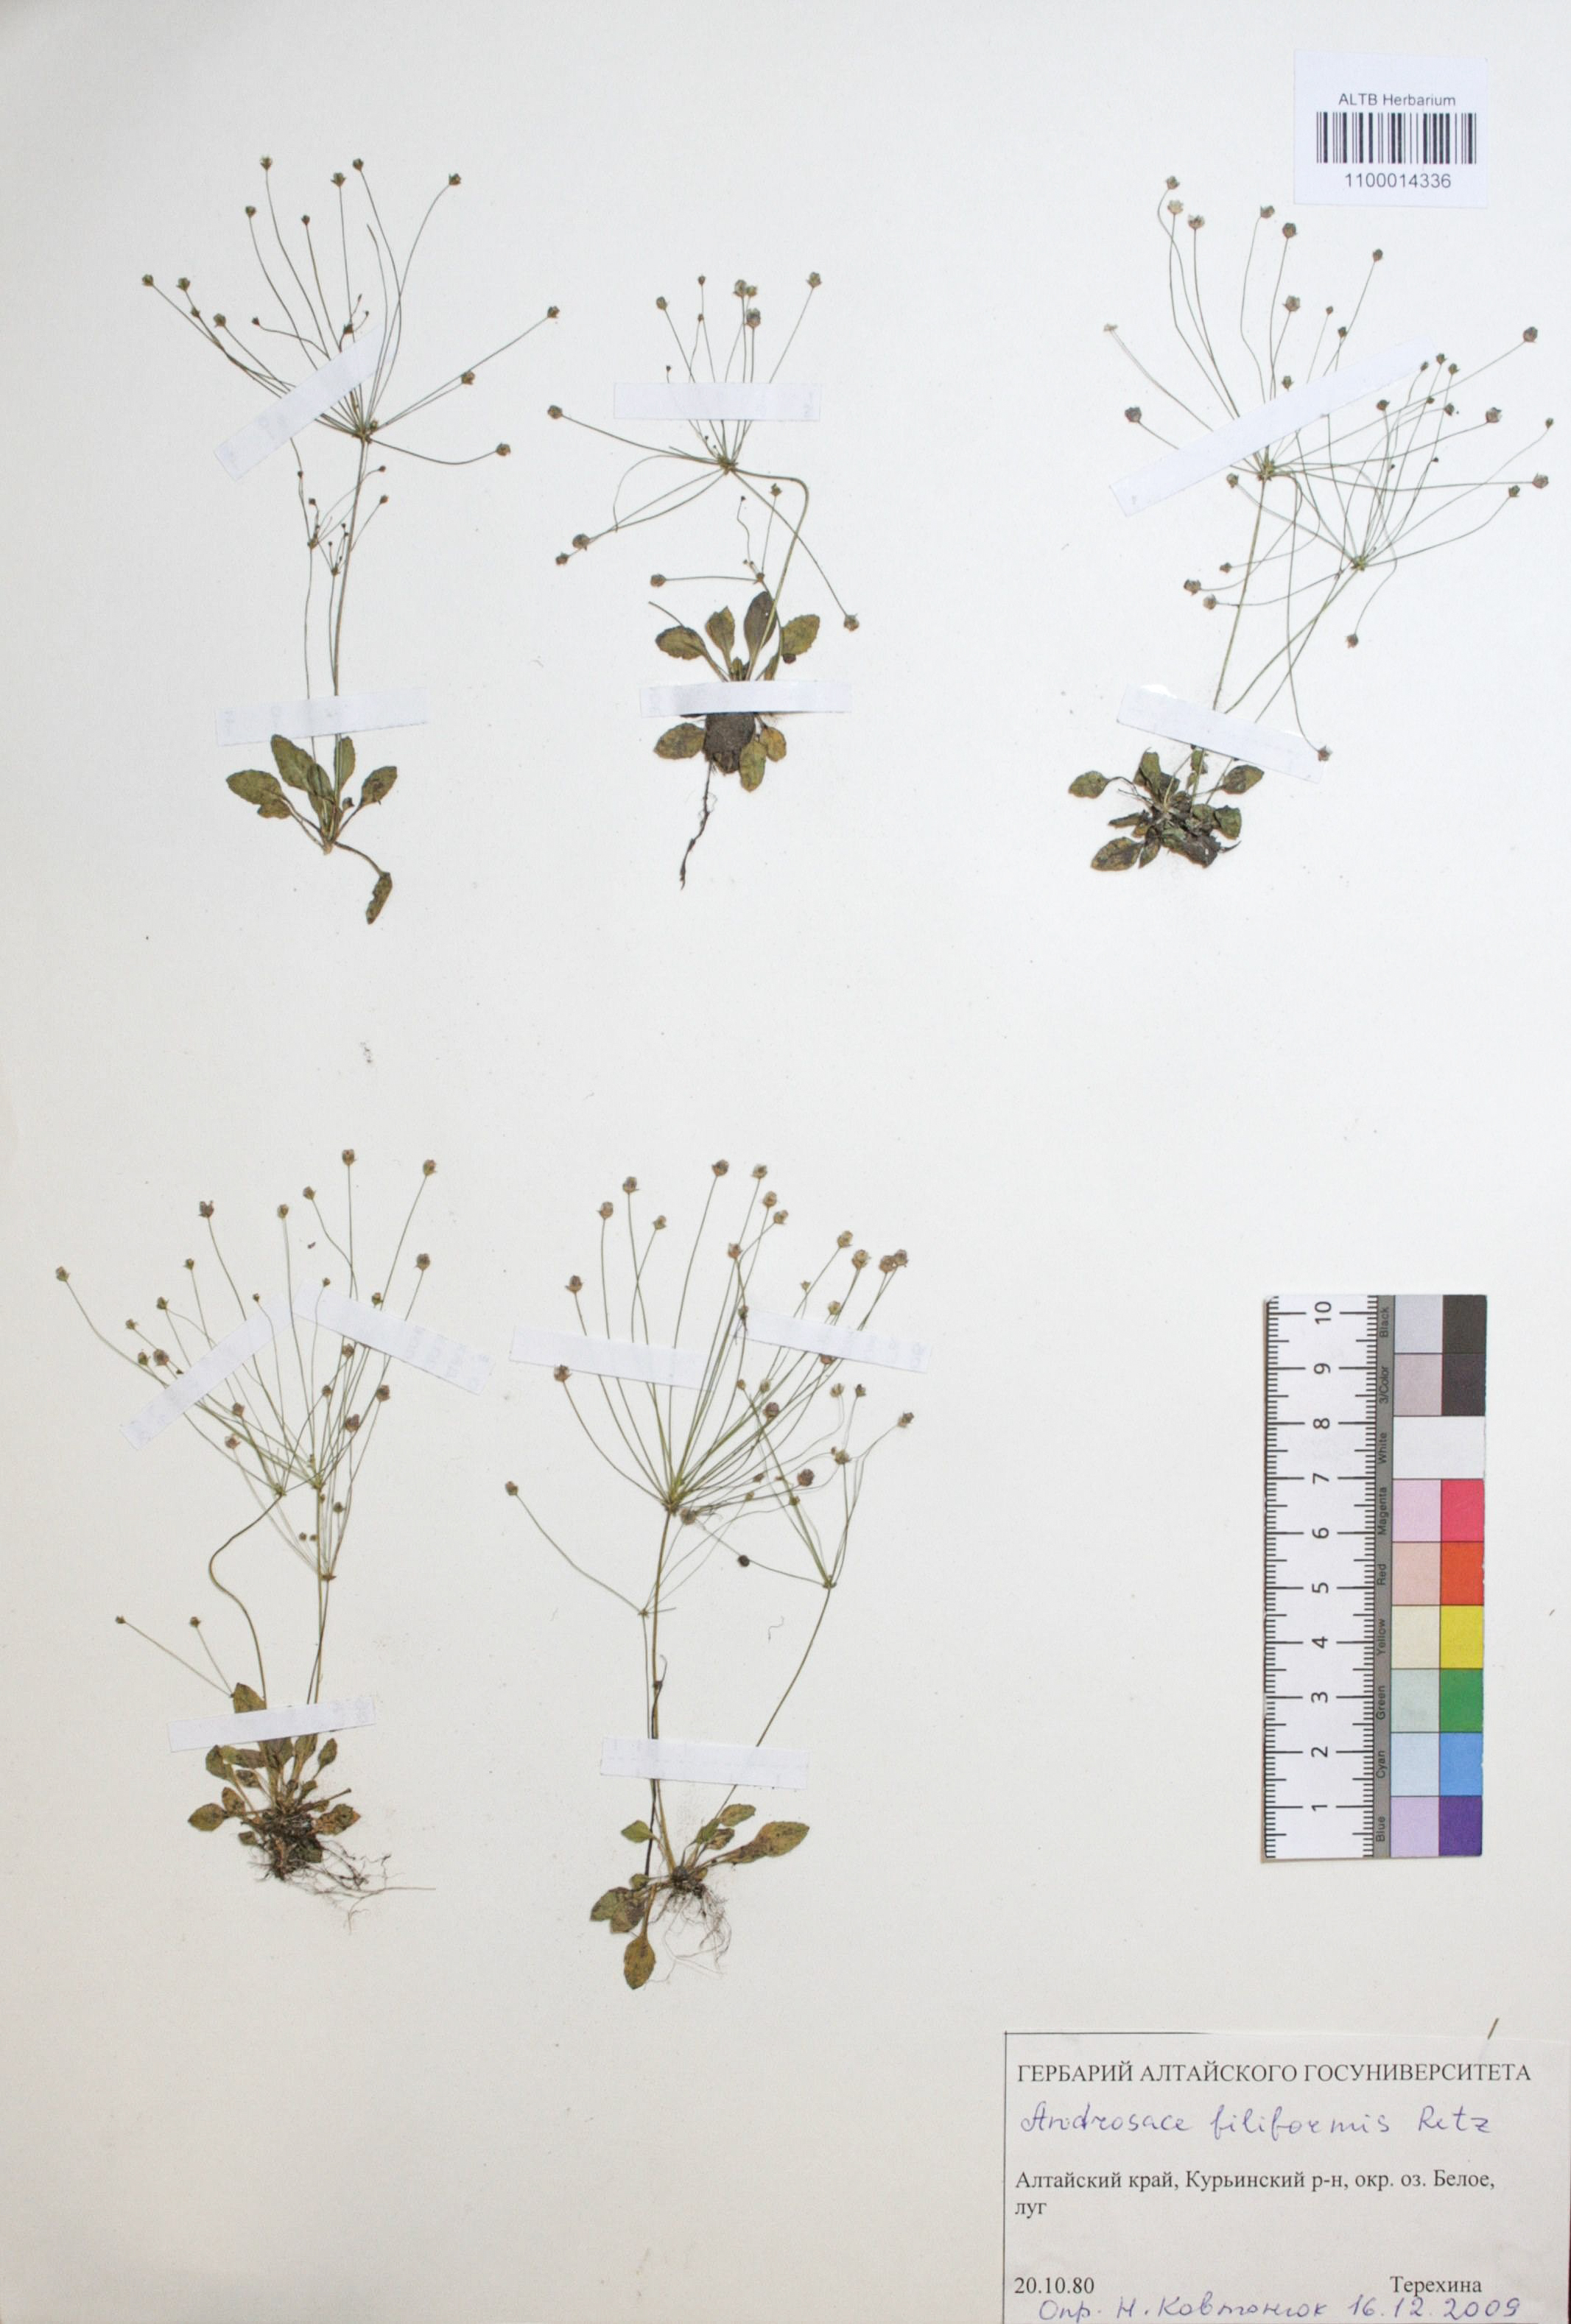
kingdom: Plantae
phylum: Tracheophyta
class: Magnoliopsida
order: Ericales
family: Primulaceae
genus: Androsace
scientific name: Androsace filiformis
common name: Filiform rock jasmine
